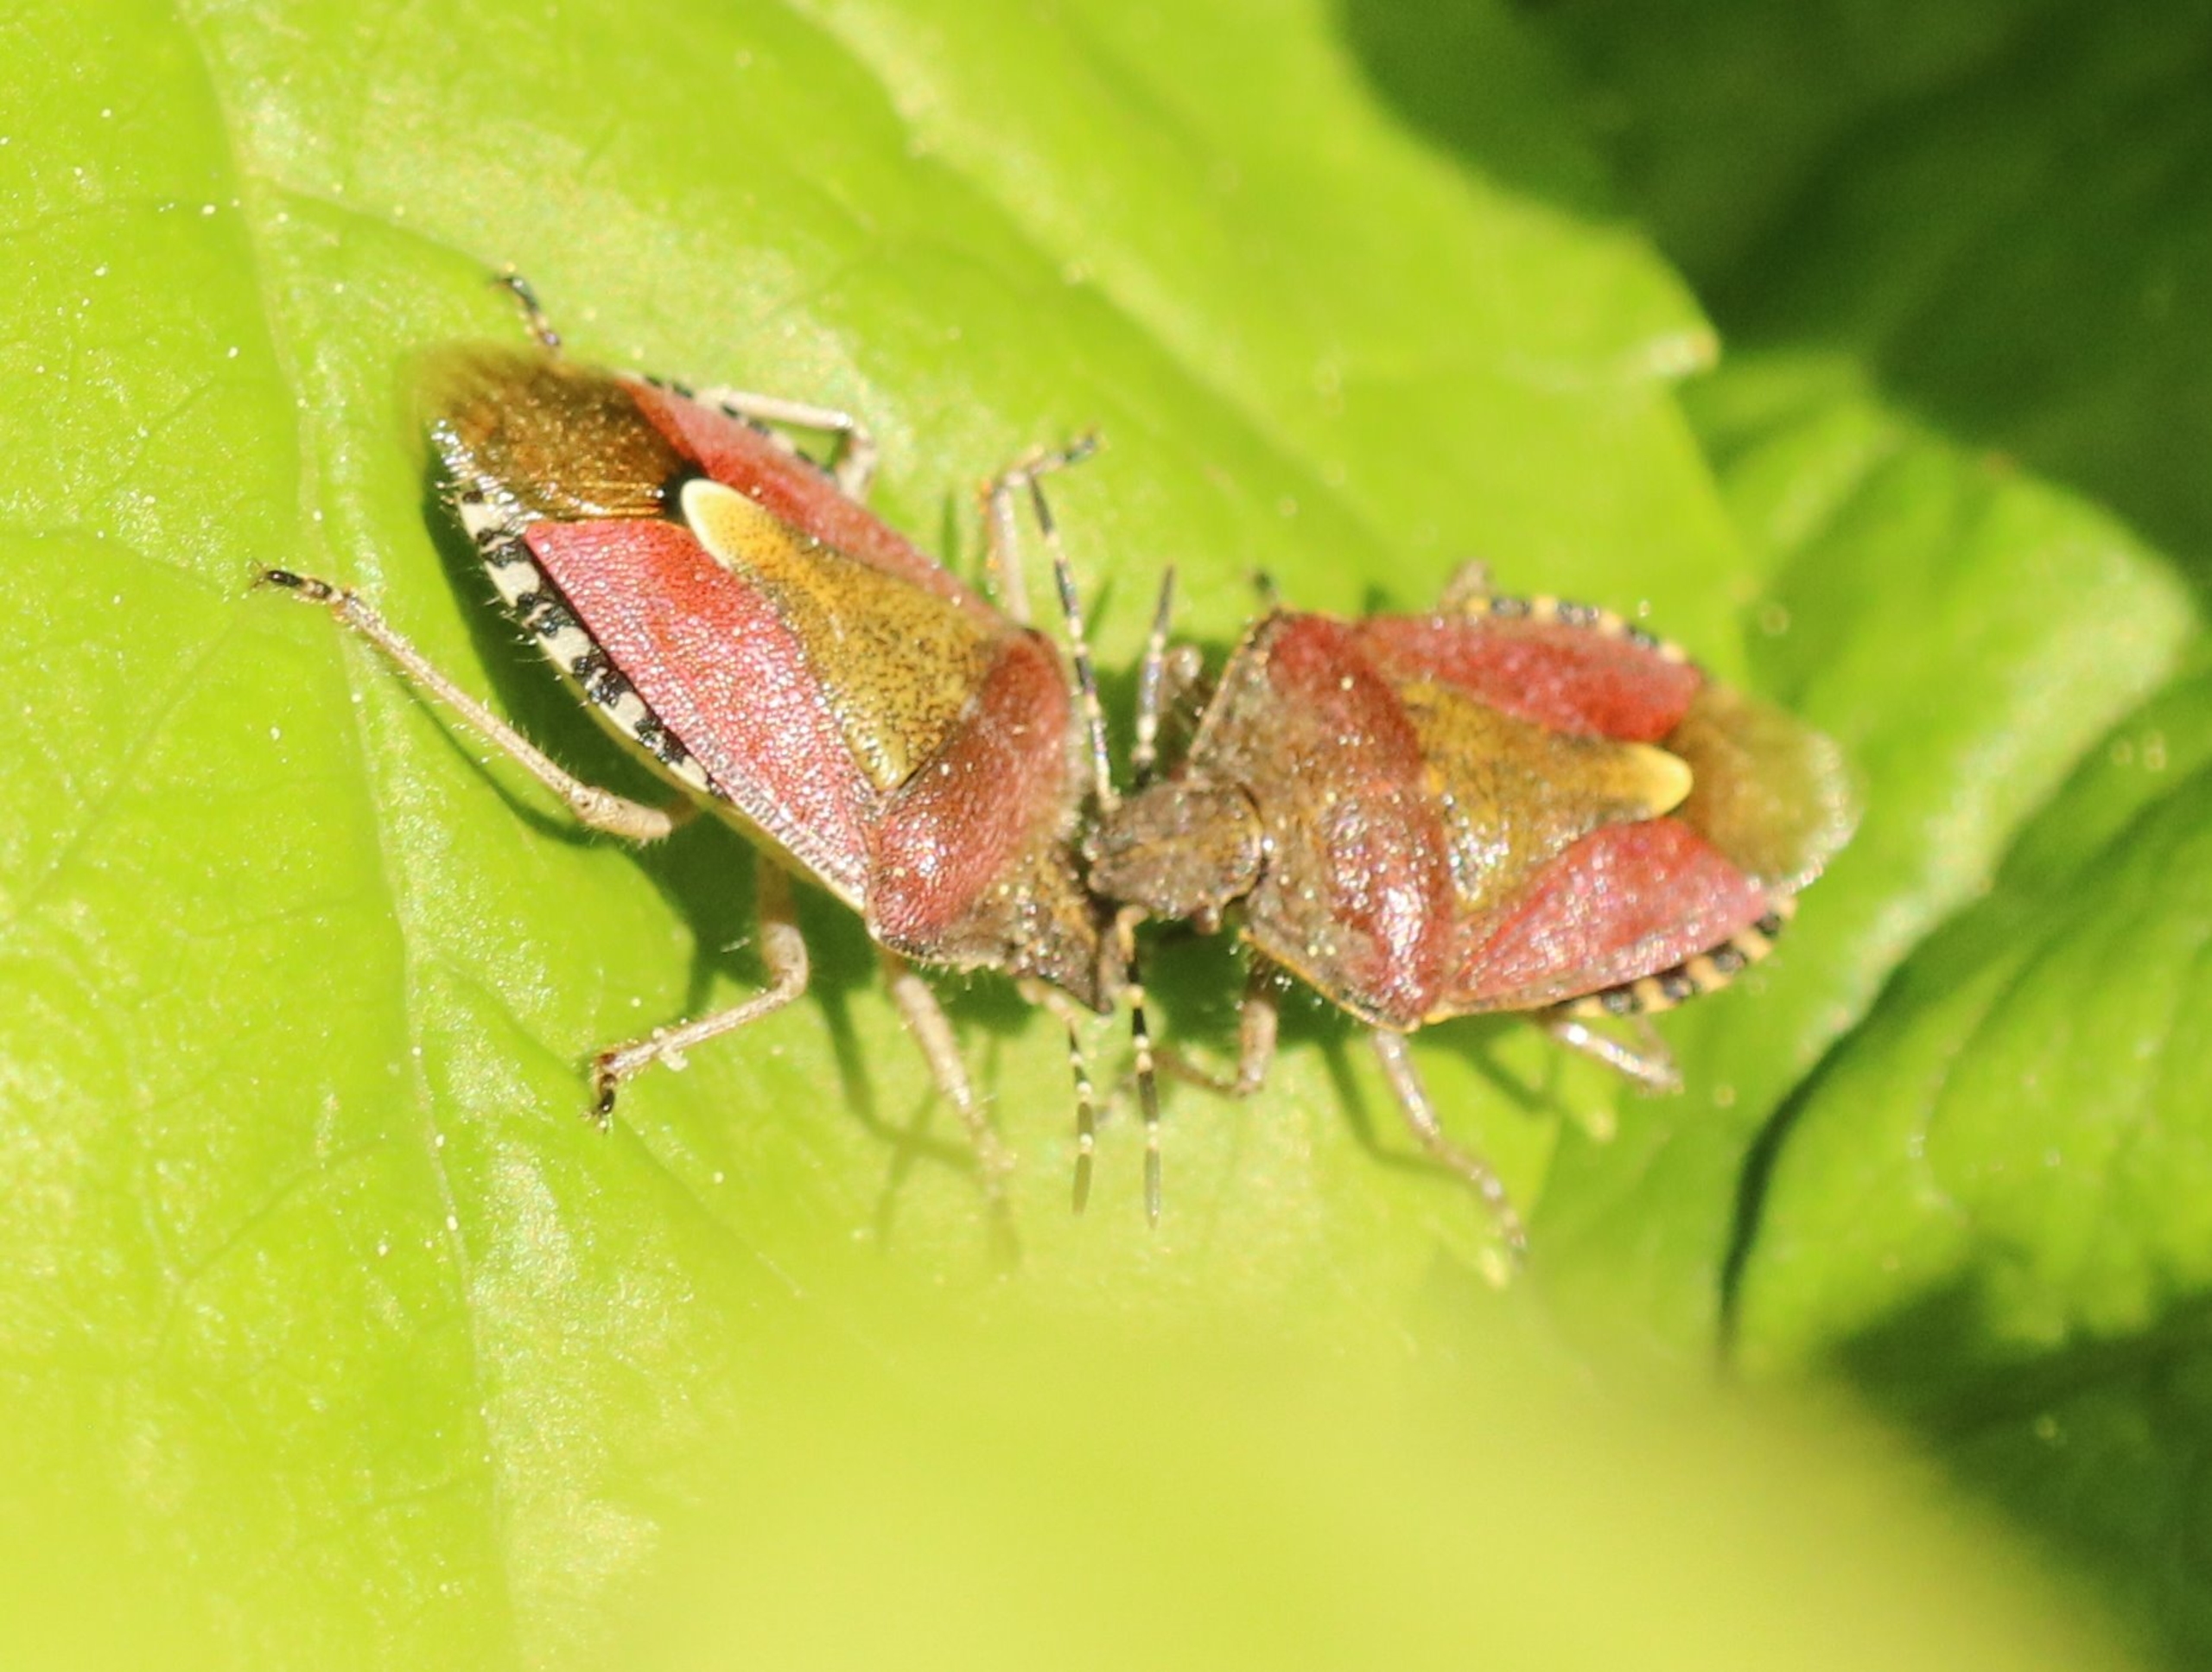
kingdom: Animalia
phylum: Arthropoda
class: Insecta
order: Hemiptera
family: Pentatomidae
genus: Dolycoris
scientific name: Dolycoris baccarum
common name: Almindelig bærtæge
